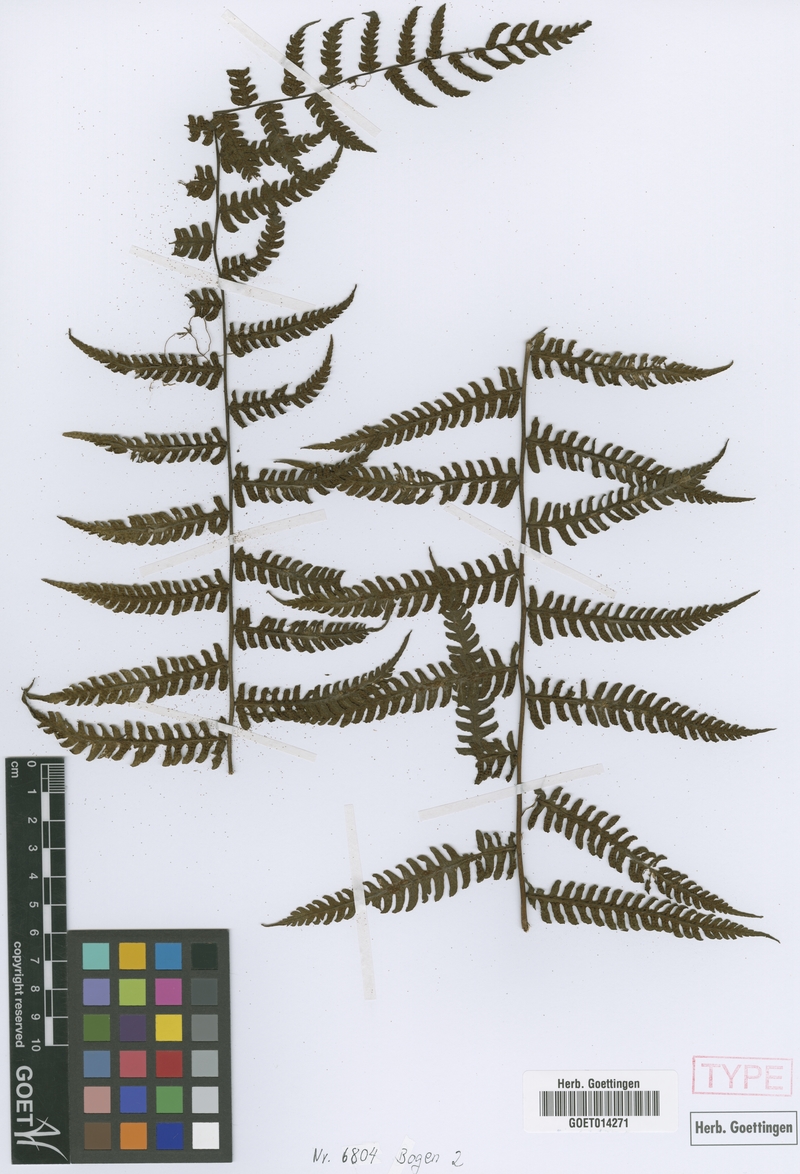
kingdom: Plantae
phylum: Tracheophyta
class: Polypodiopsida
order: Polypodiales
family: Thelypteridaceae
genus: Amauropelta
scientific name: Amauropelta yungensis
